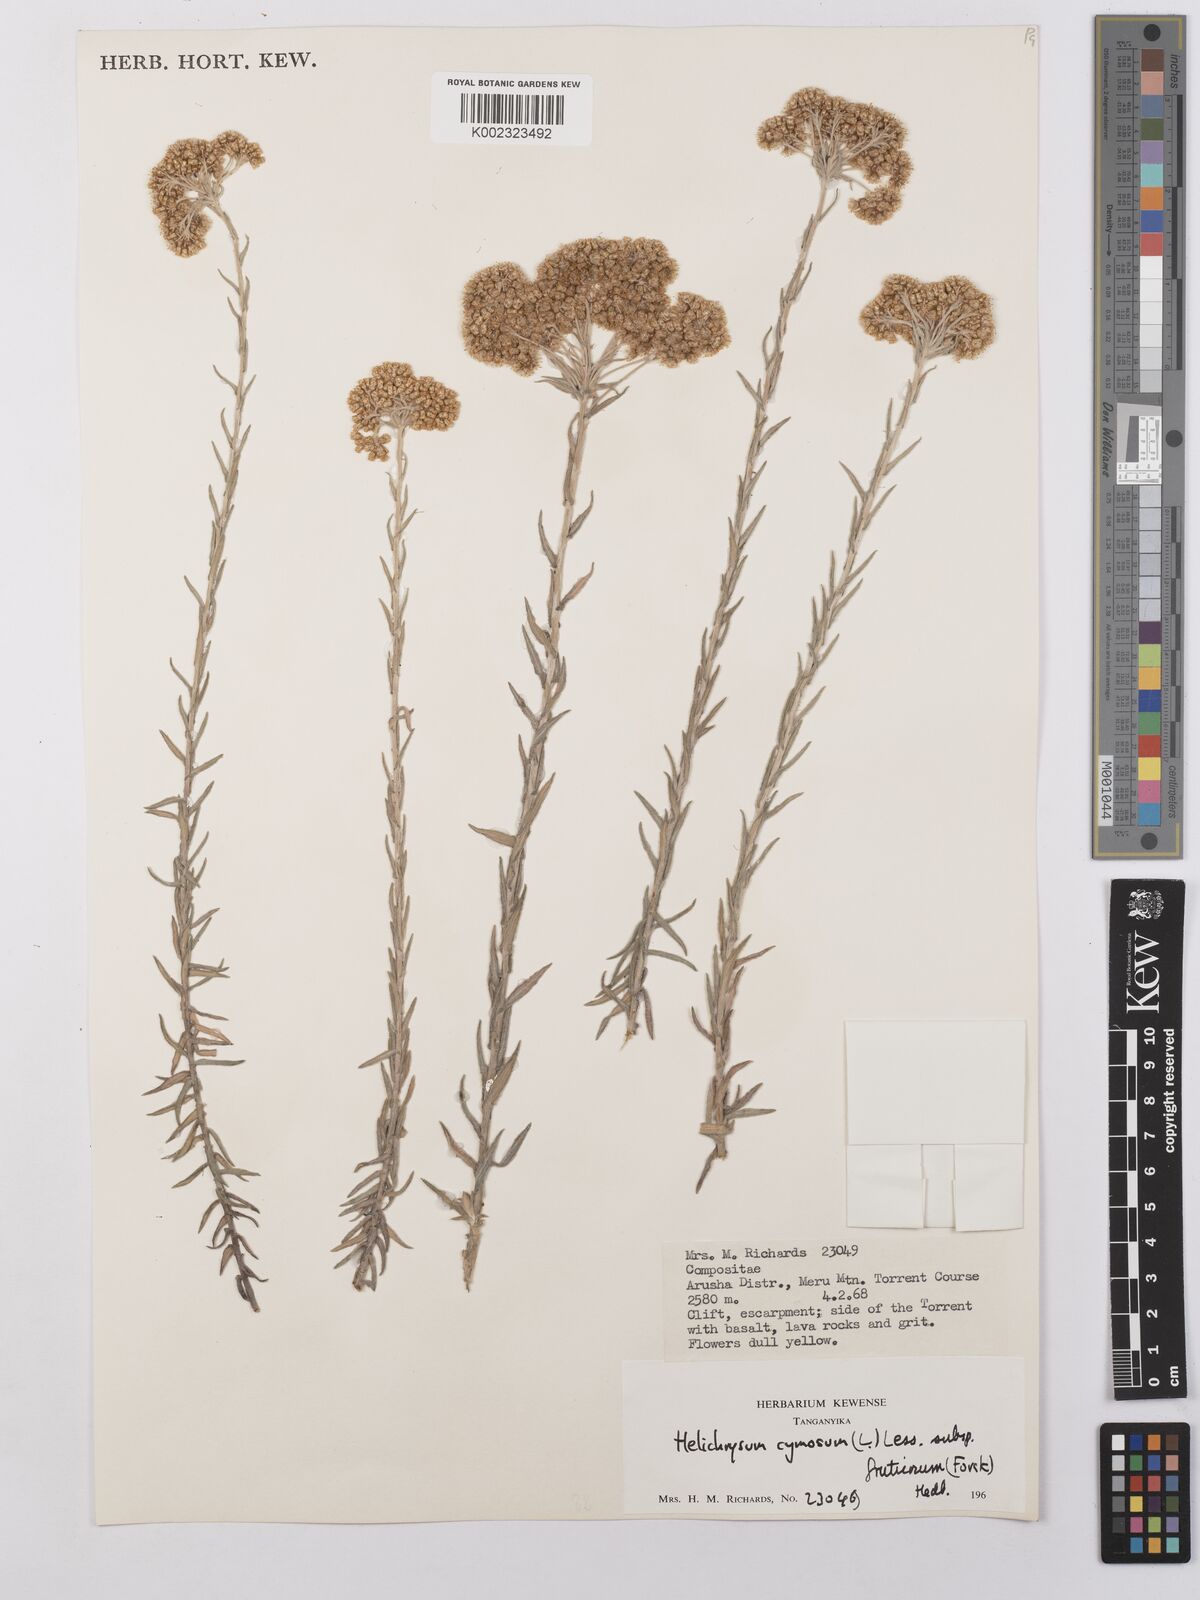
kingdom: Plantae
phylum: Tracheophyta
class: Magnoliopsida
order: Asterales
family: Asteraceae
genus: Helichrysum
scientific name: Helichrysum forskahlii
